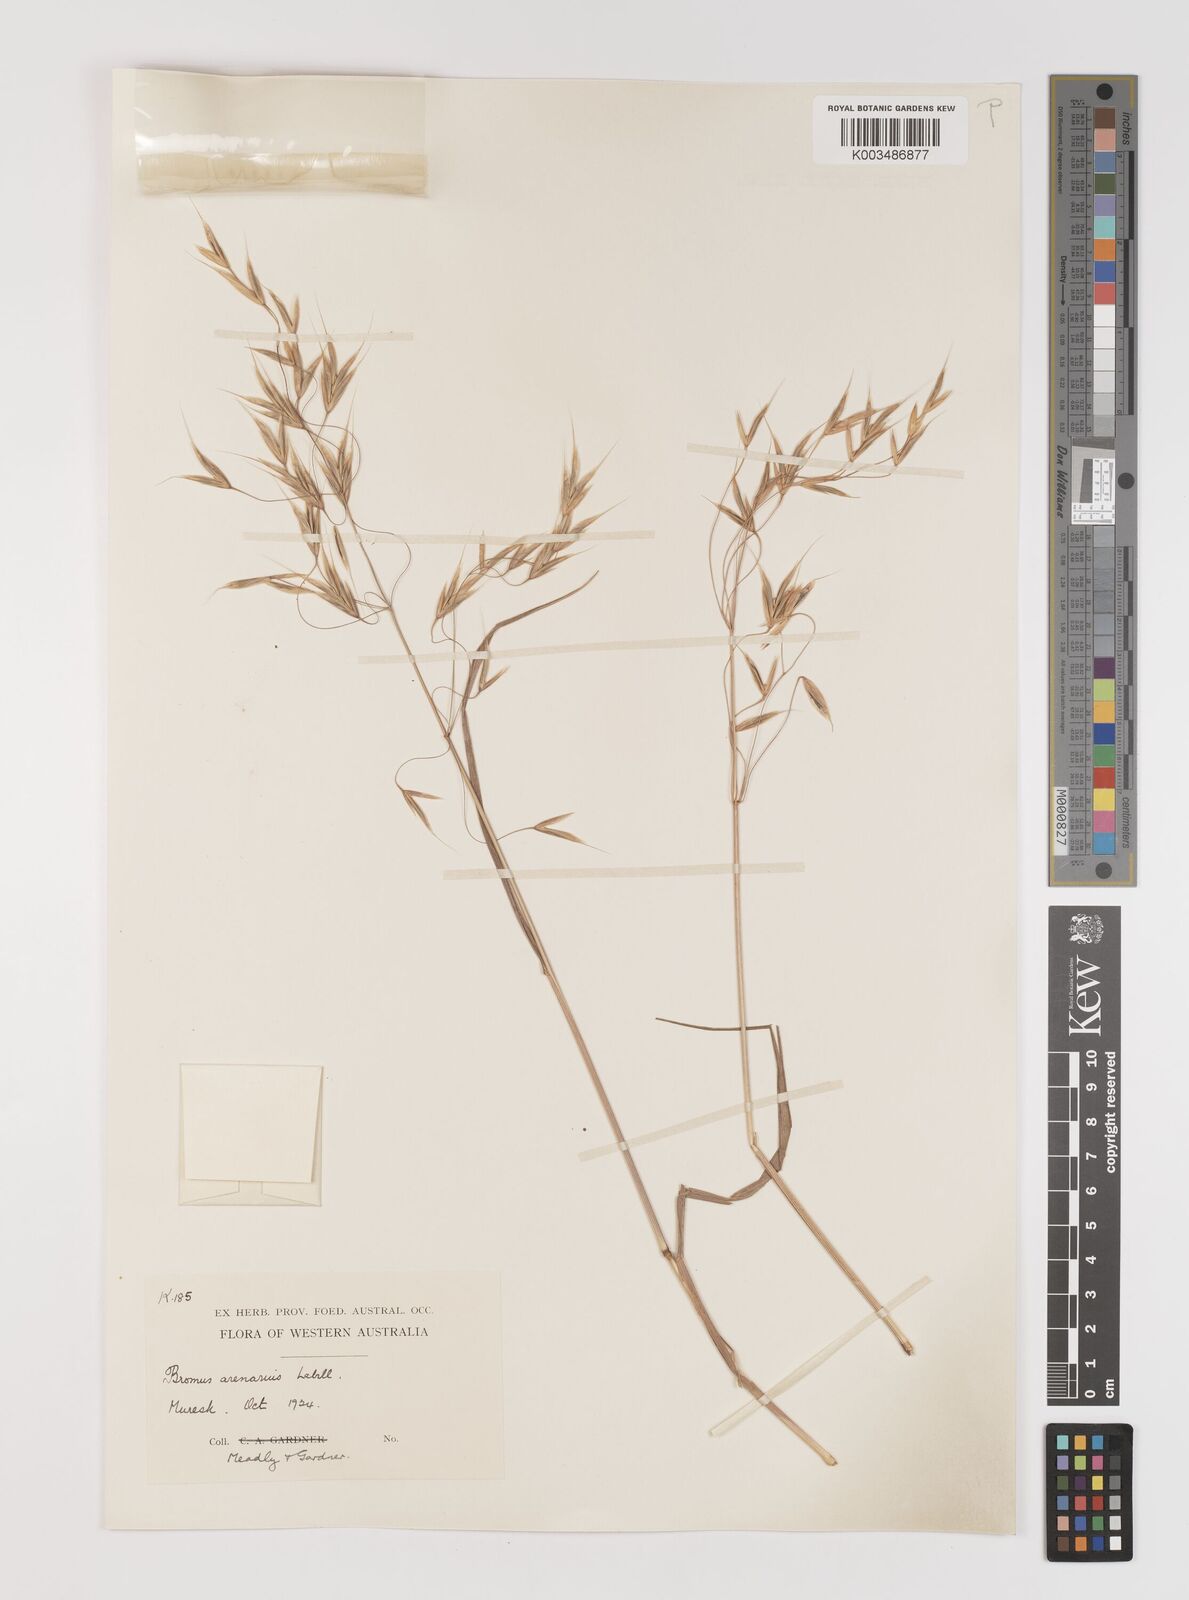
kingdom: Plantae
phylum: Tracheophyta
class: Liliopsida
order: Poales
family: Poaceae
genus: Bromus
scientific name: Bromus arenarius
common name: Australian brome
